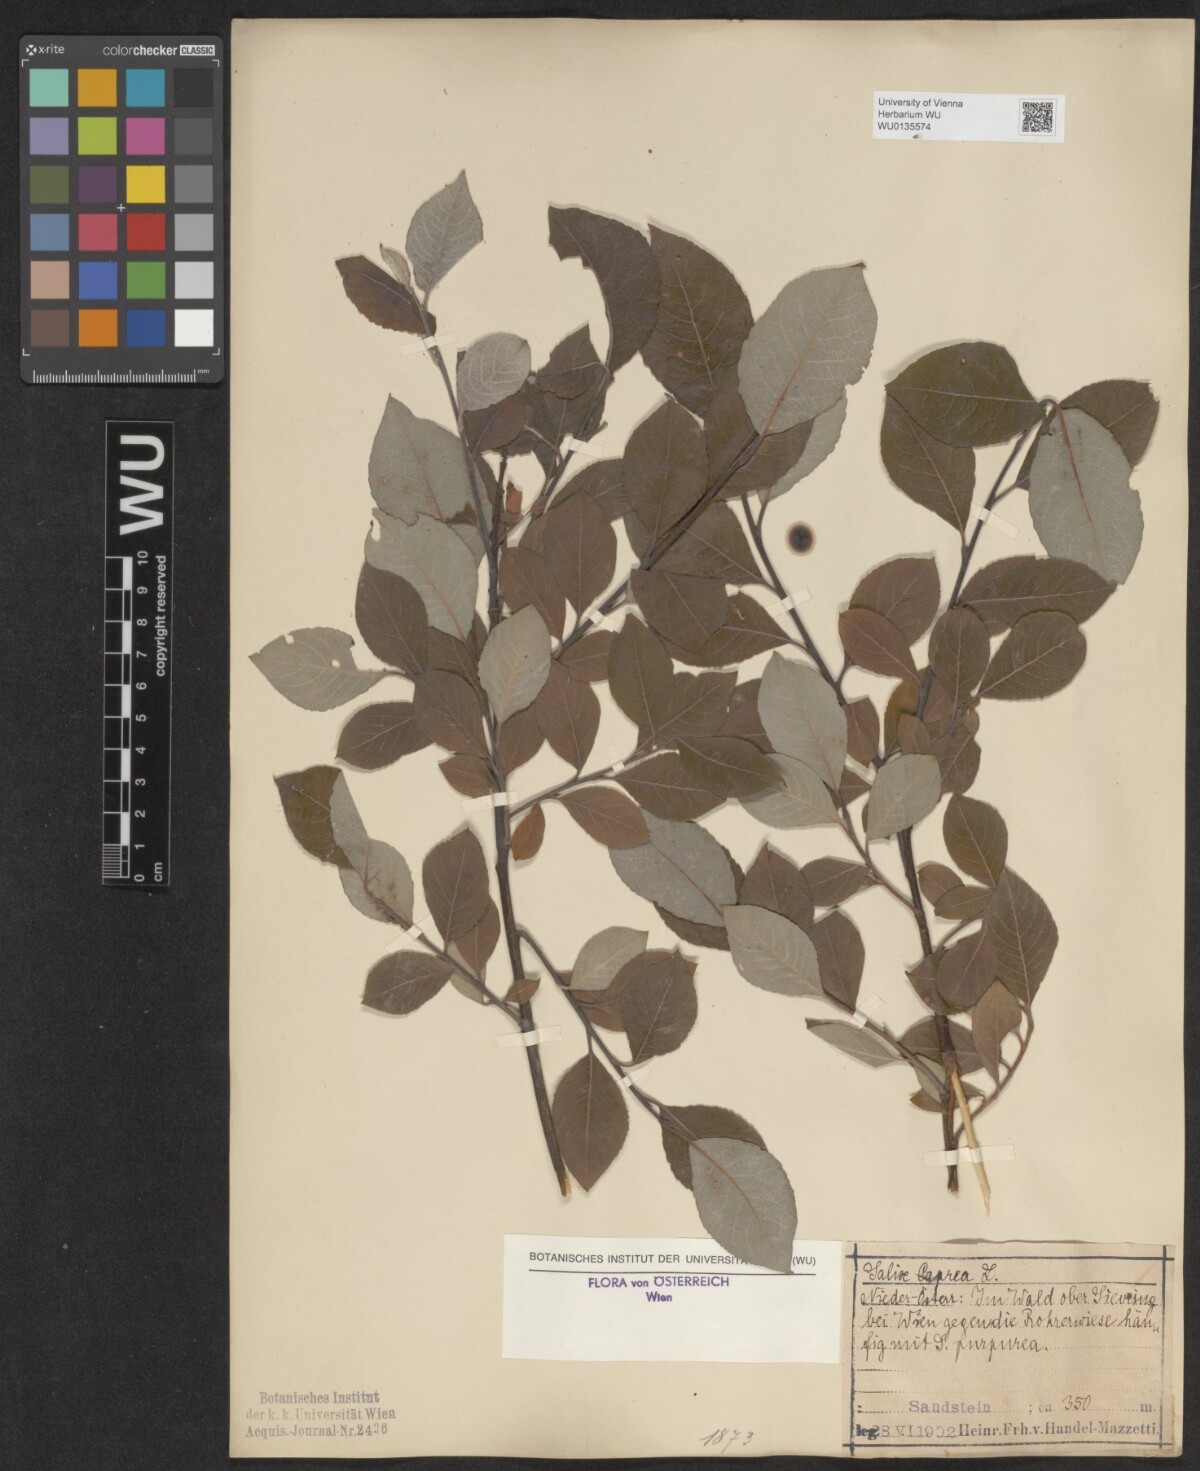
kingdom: Plantae
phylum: Tracheophyta
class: Magnoliopsida
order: Malpighiales
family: Salicaceae
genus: Salix
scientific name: Salix caprea
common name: Goat willow
